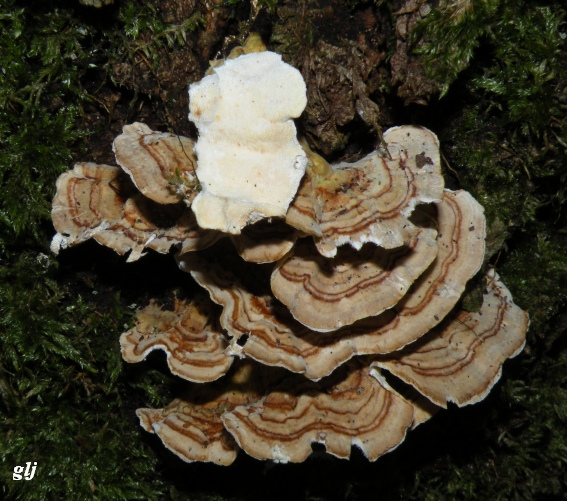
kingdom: Fungi
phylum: Basidiomycota
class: Agaricomycetes
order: Polyporales
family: Polyporaceae
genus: Trametes
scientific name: Trametes versicolor
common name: broget læderporesvamp
